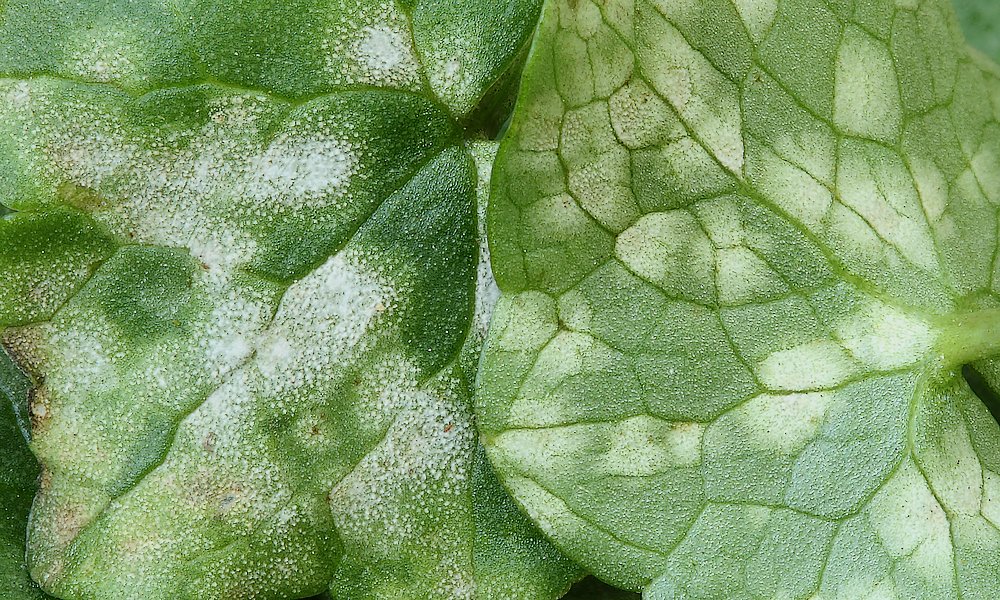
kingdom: Fungi
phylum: Basidiomycota
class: Exobasidiomycetes
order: Entylomatales
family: Entylomataceae
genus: Entyloma
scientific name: Entyloma ficariae
